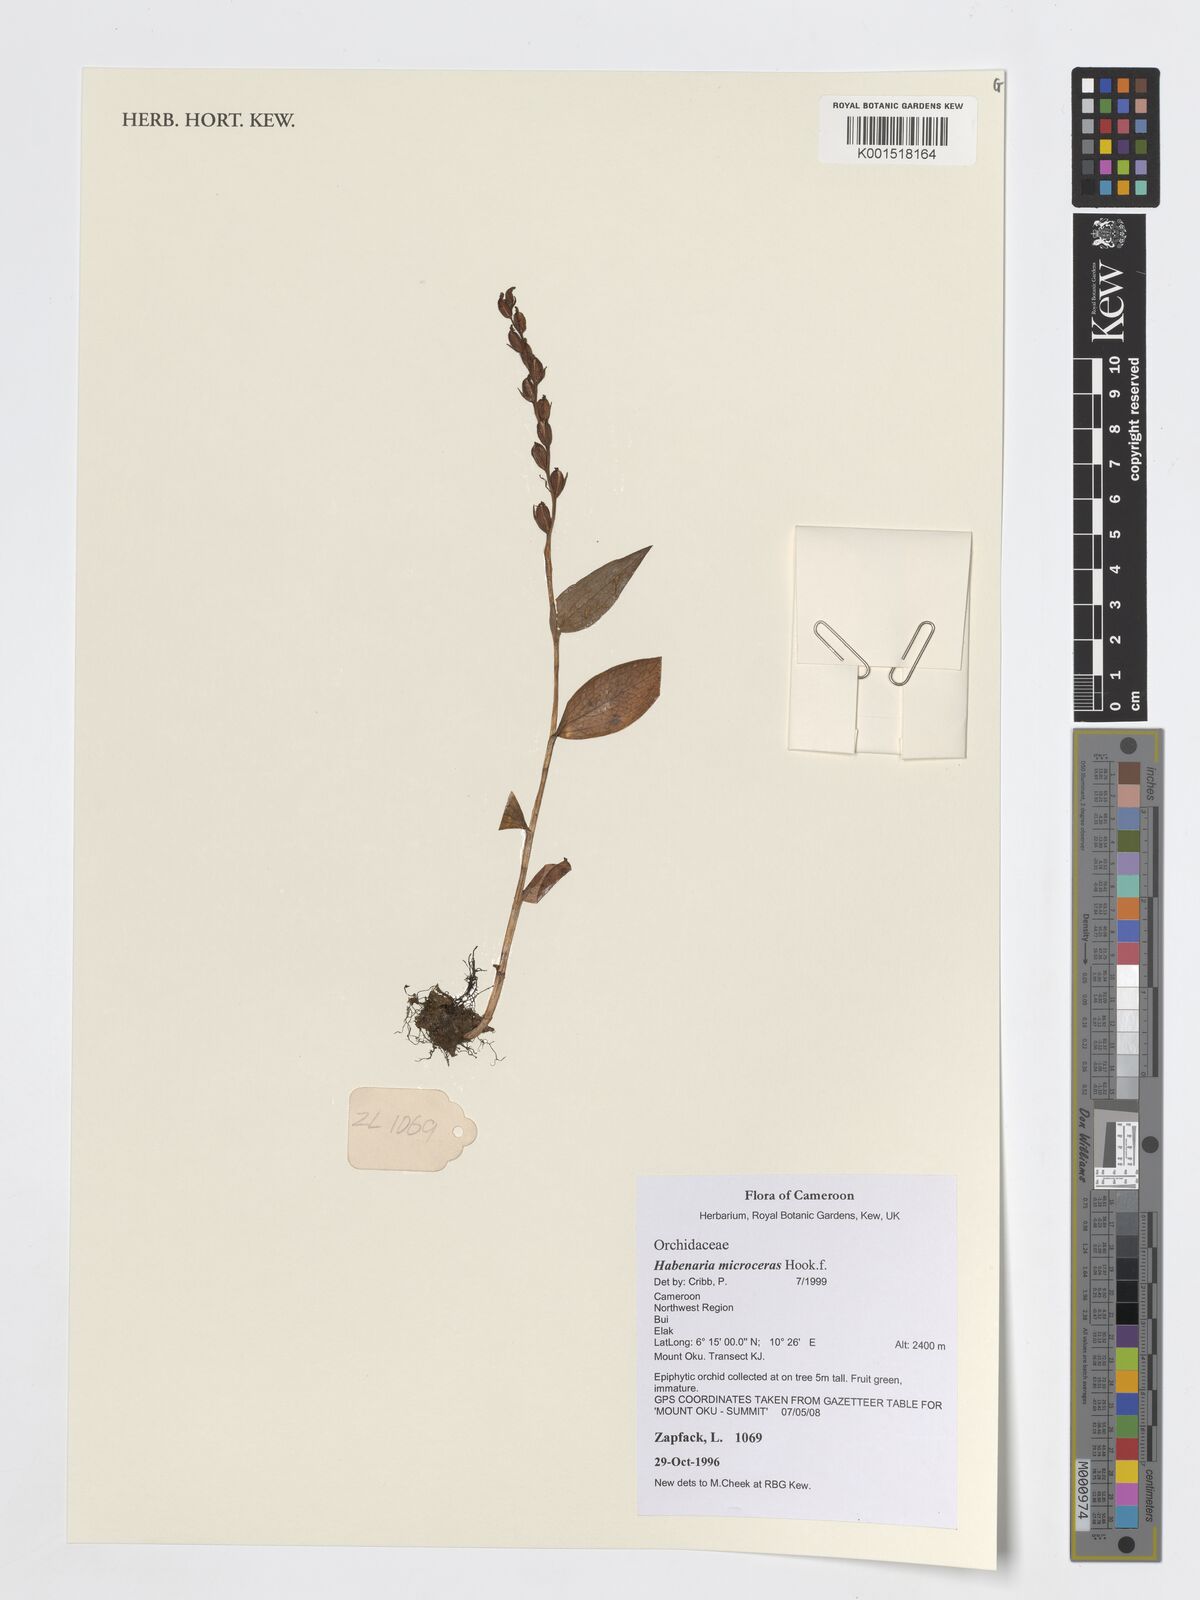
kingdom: Plantae
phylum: Tracheophyta
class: Liliopsida
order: Asparagales
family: Orchidaceae
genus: Habenaria
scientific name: Habenaria microceras
